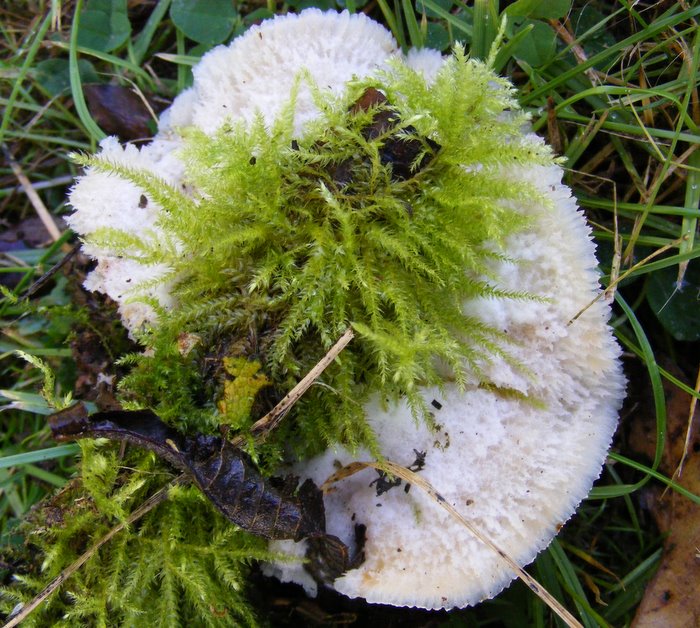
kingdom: Fungi
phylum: Basidiomycota
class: Agaricomycetes
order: Polyporales
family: Meruliaceae
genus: Phlebia
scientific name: Phlebia tremellosa
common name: bævrende åresvamp
